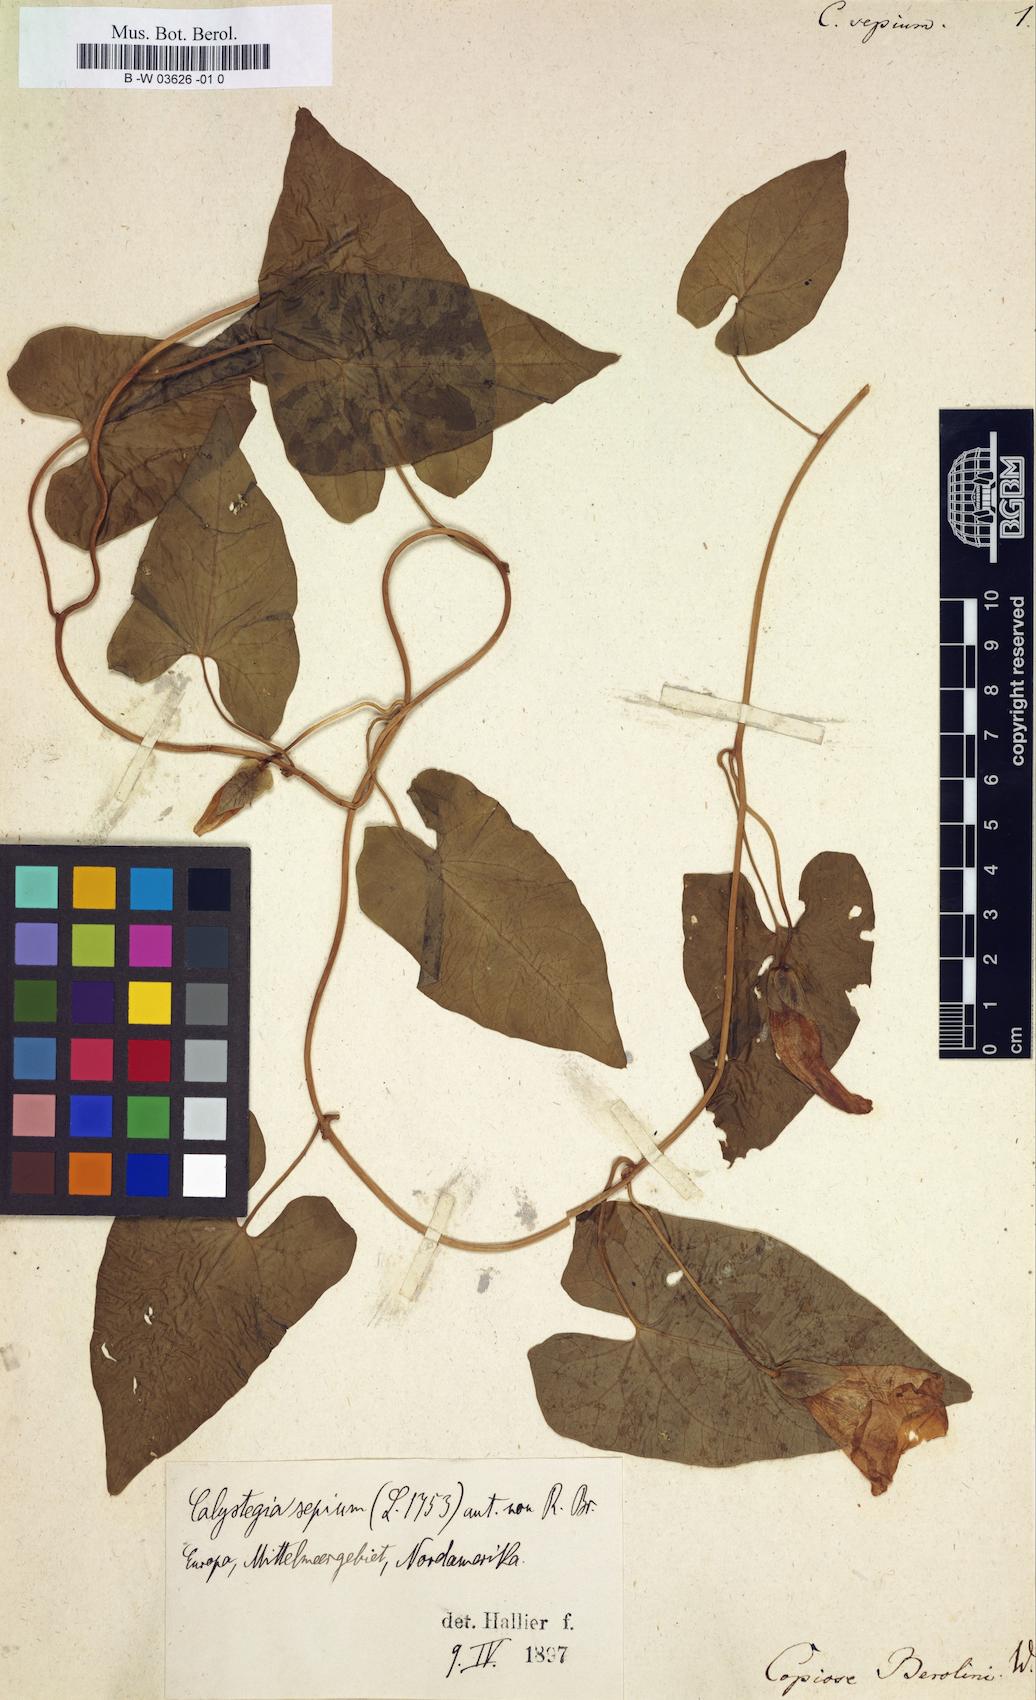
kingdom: Plantae
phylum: Tracheophyta
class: Magnoliopsida
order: Solanales
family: Convolvulaceae
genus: Convolvulus
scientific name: Convolvulus sepium
